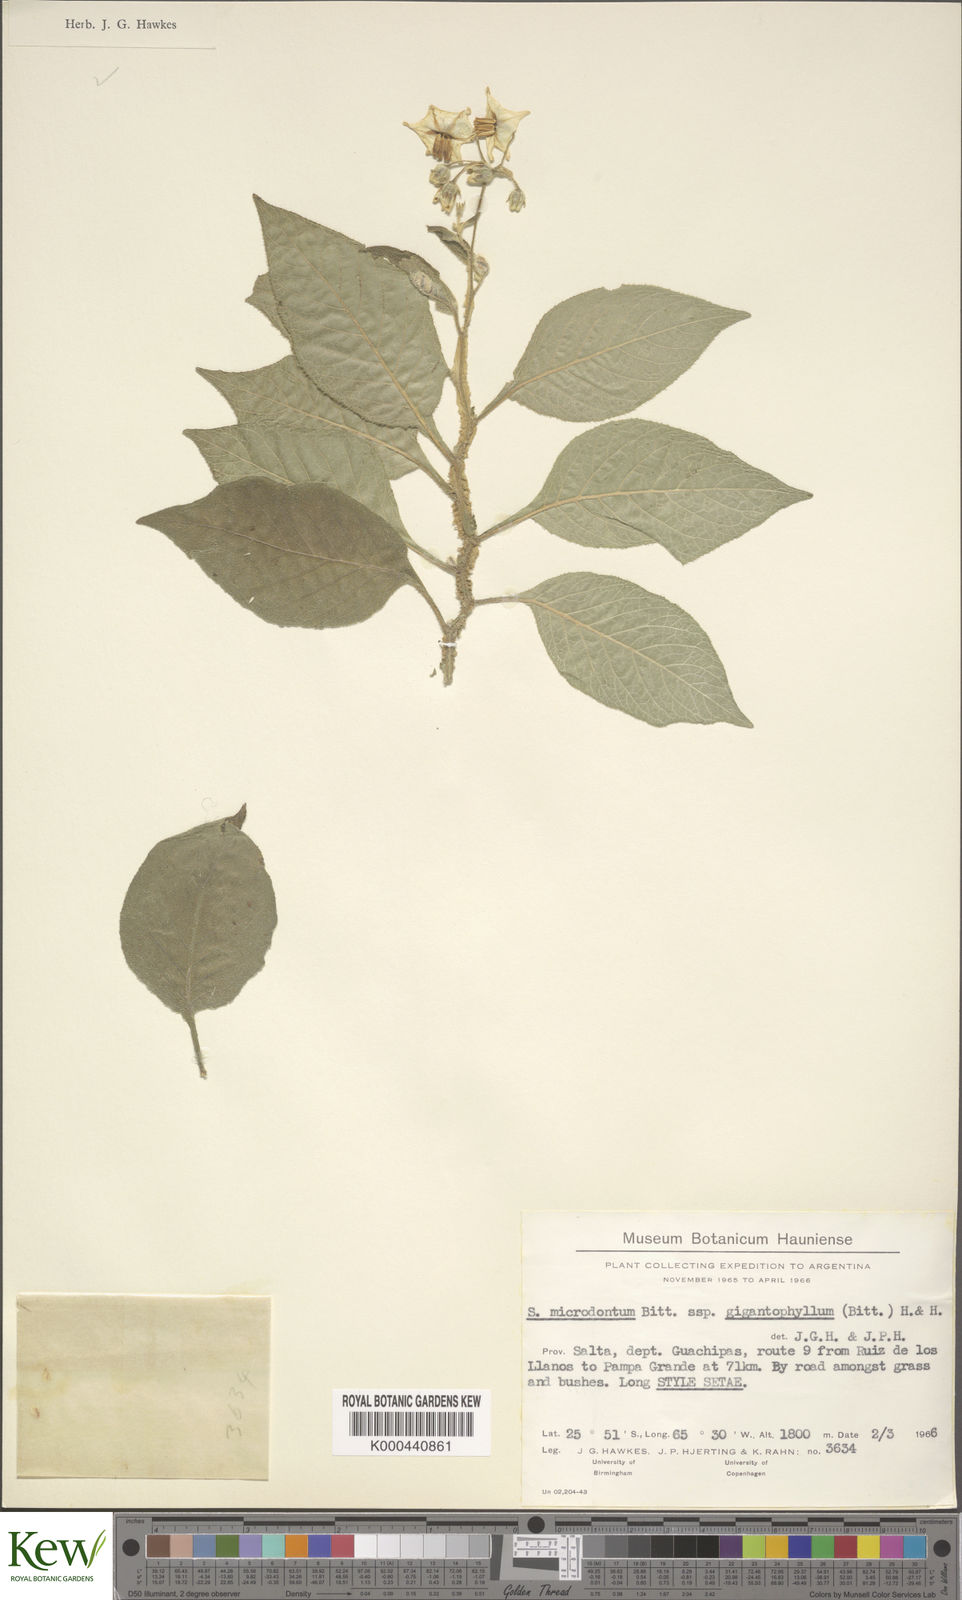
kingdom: Plantae
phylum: Tracheophyta
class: Magnoliopsida
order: Solanales
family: Solanaceae
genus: Solanum
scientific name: Solanum microdontum
